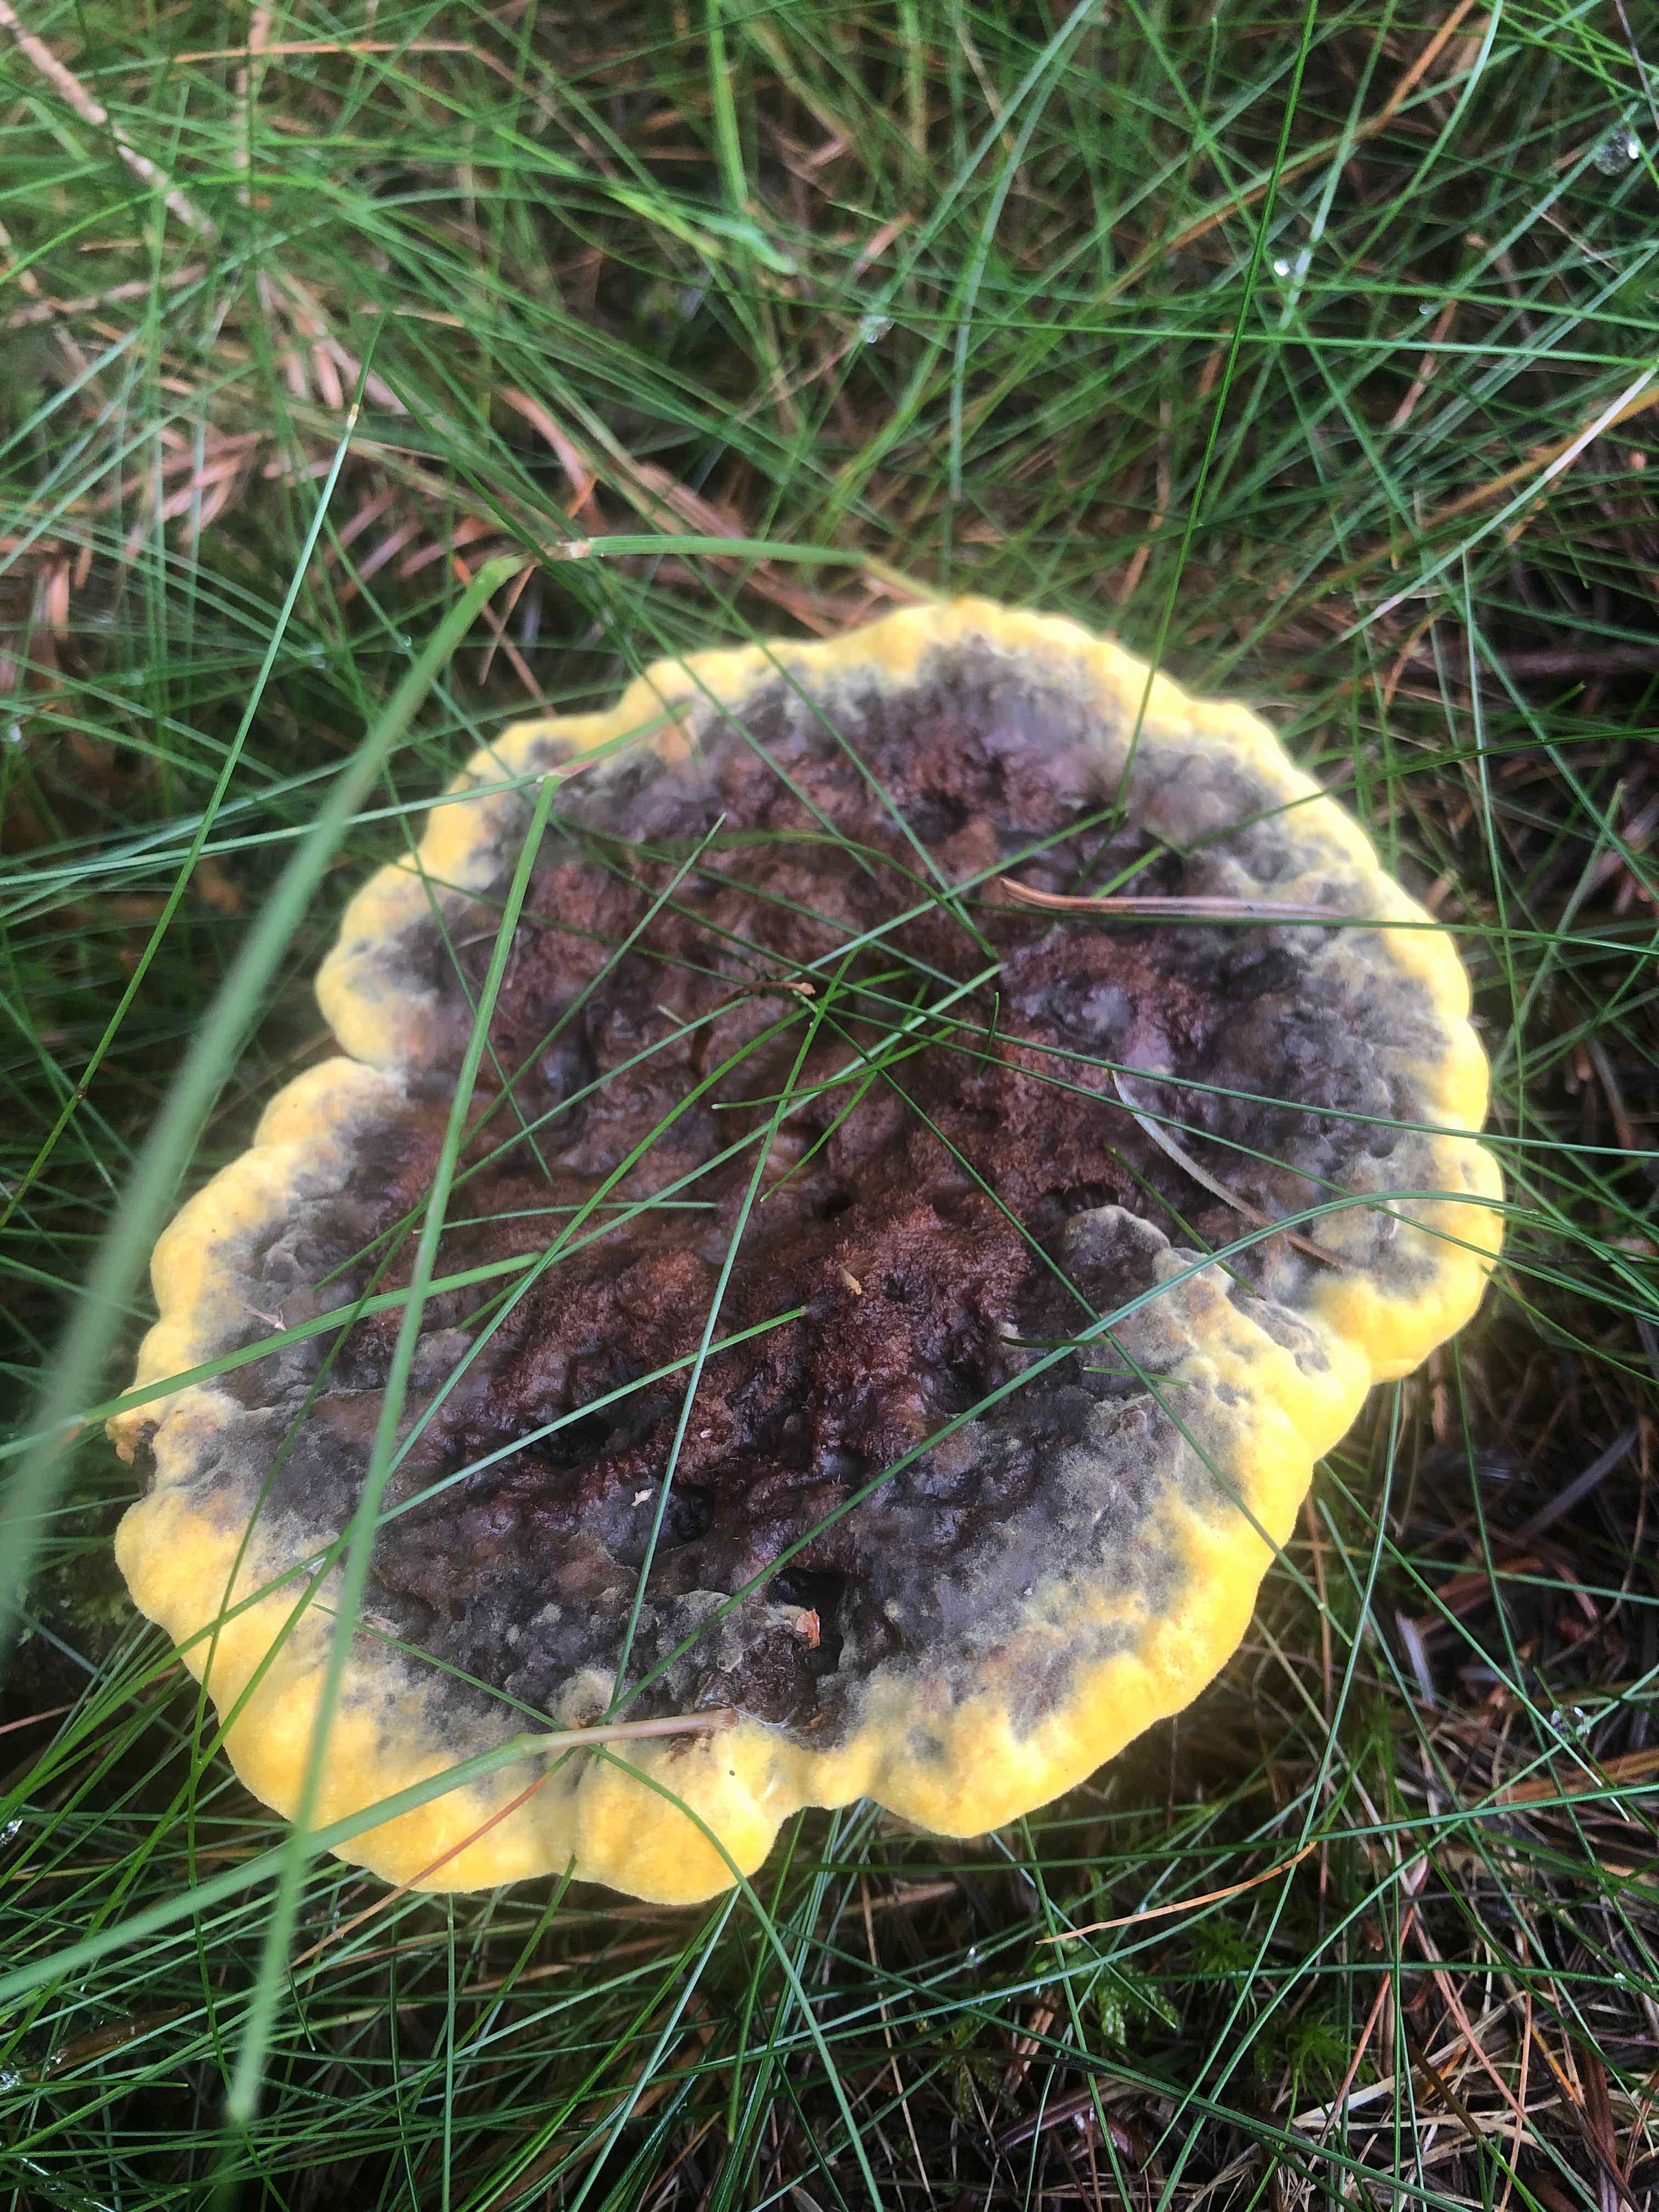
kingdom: Fungi
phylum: Basidiomycota
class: Agaricomycetes
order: Polyporales
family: Laetiporaceae
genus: Phaeolus
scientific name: Phaeolus schweinitzii
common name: brunporesvamp
